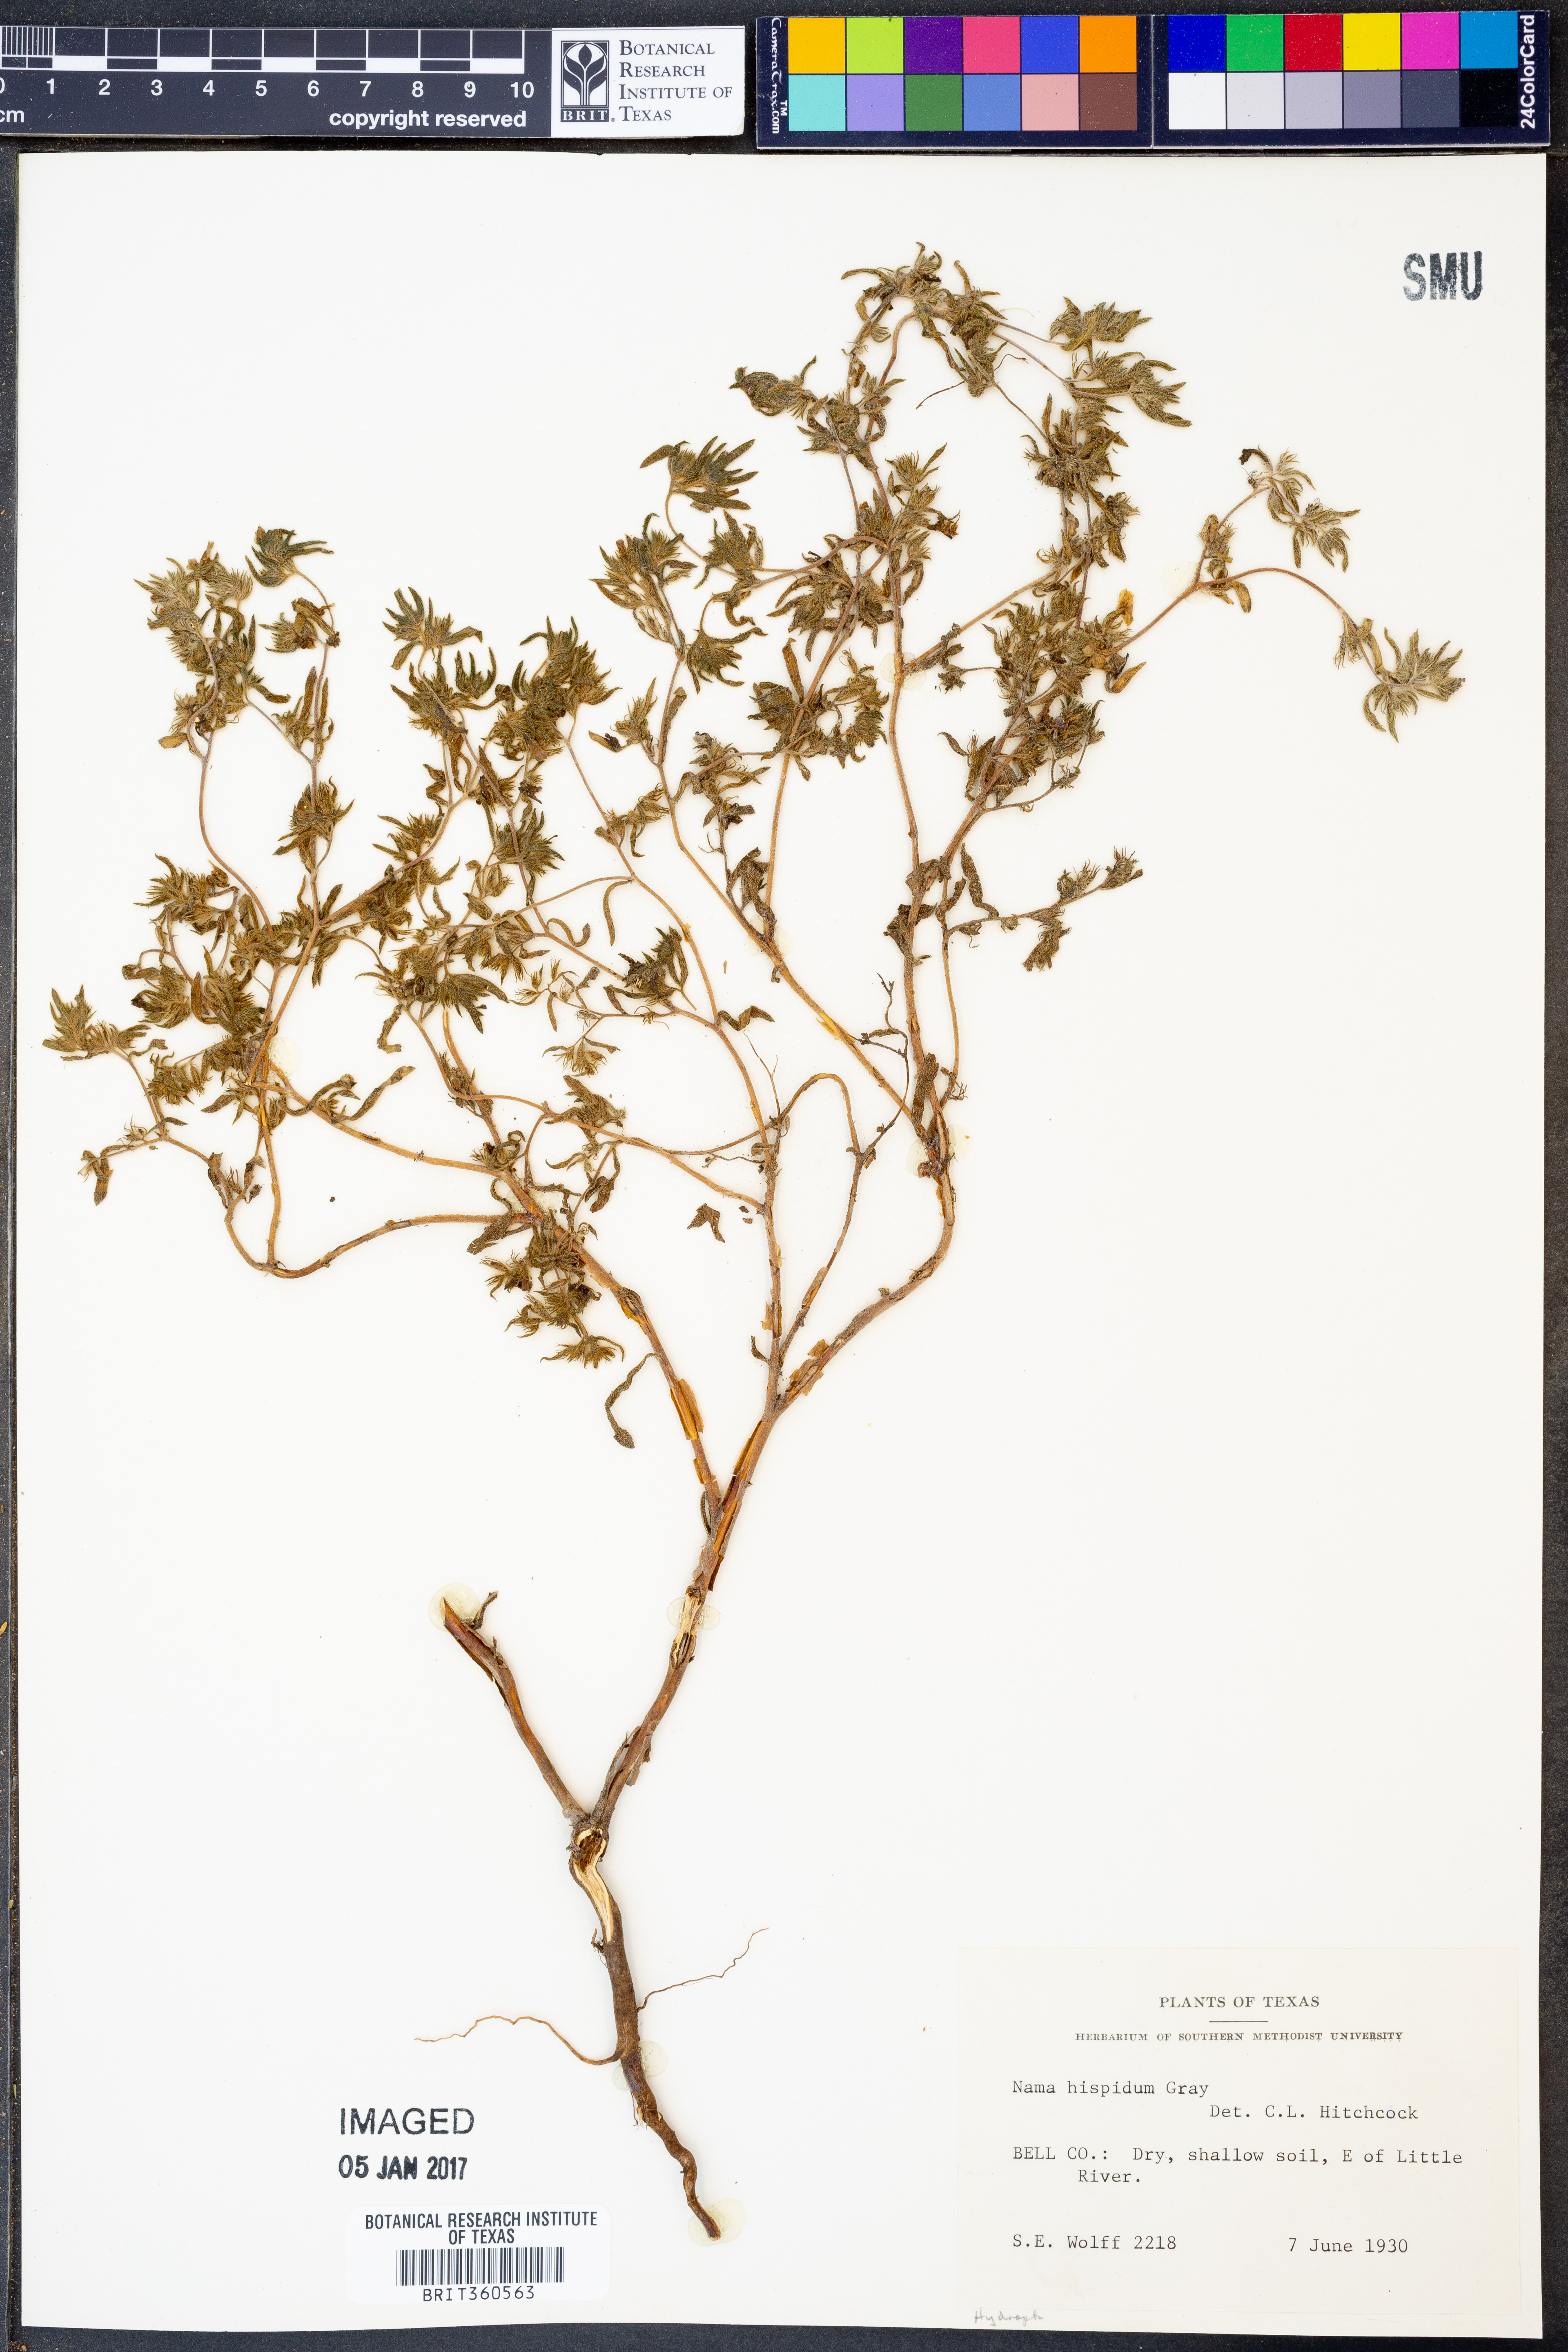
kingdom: Plantae
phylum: Tracheophyta
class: Magnoliopsida
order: Boraginales
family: Namaceae
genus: Nama
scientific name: Nama hispida
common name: Bristly nama
